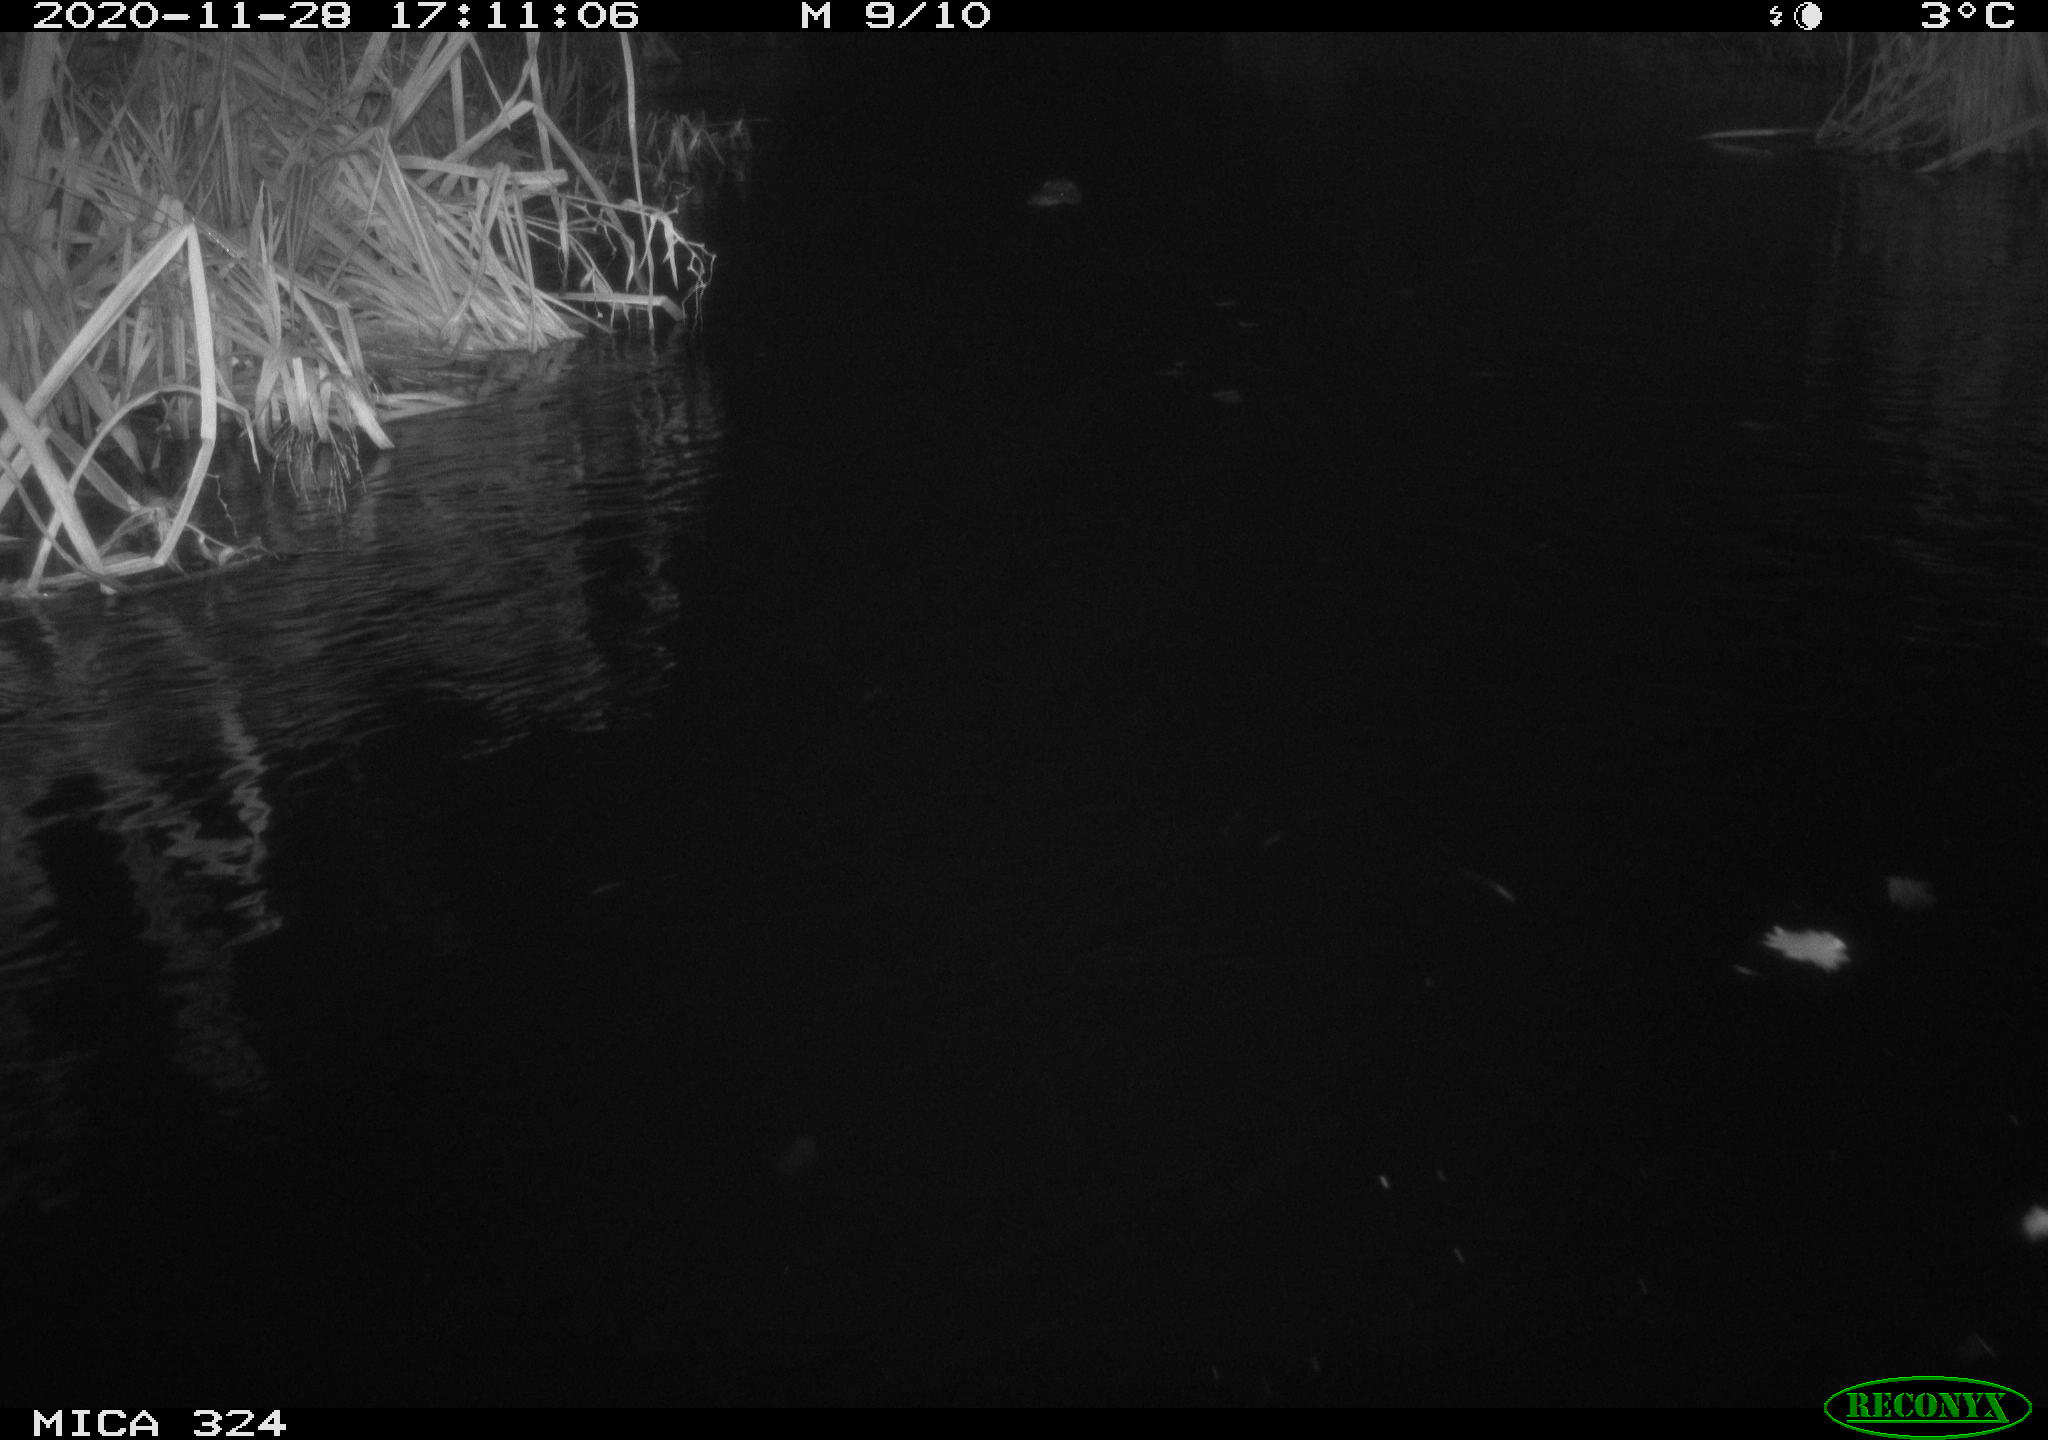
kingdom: Animalia
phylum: Chordata
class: Mammalia
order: Rodentia
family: Cricetidae
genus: Ondatra
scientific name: Ondatra zibethicus
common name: Muskrat
